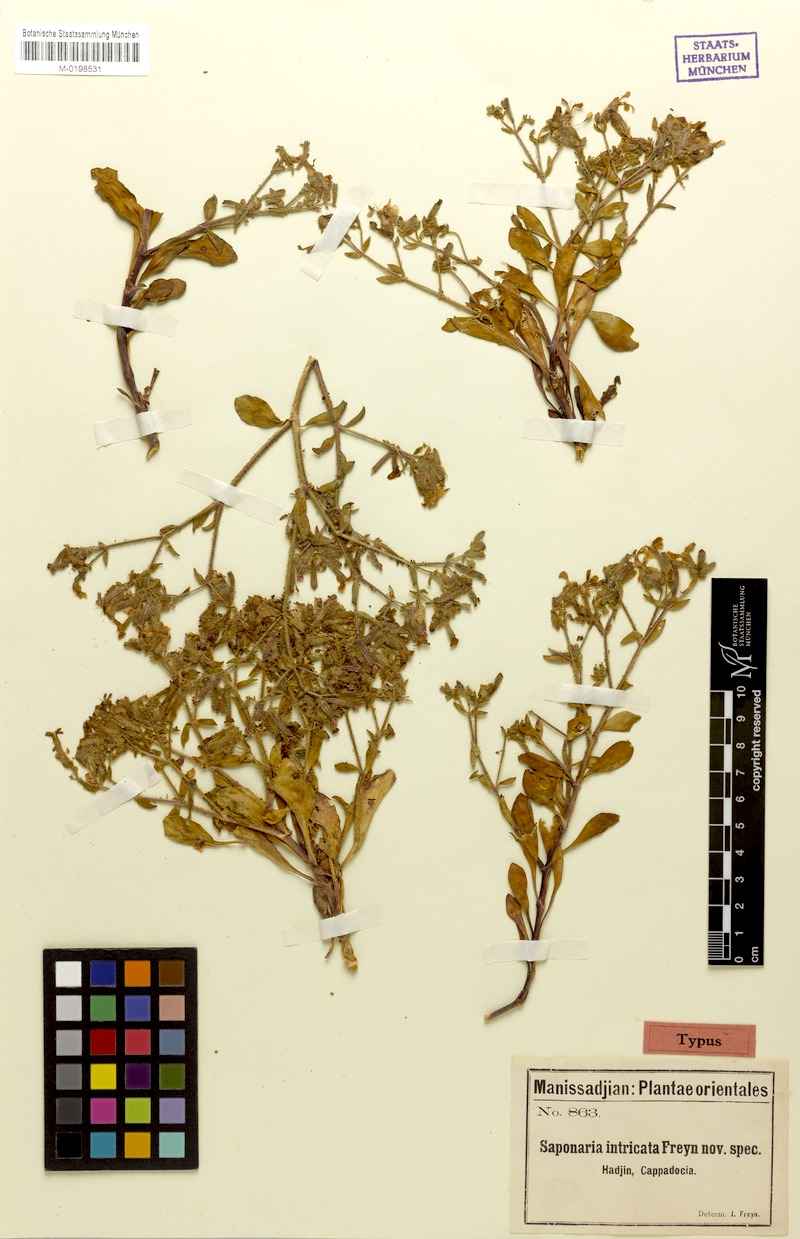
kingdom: Plantae
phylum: Tracheophyta
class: Magnoliopsida
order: Caryophyllales
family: Caryophyllaceae
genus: Saponaria
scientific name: Saponaria kotschyi
